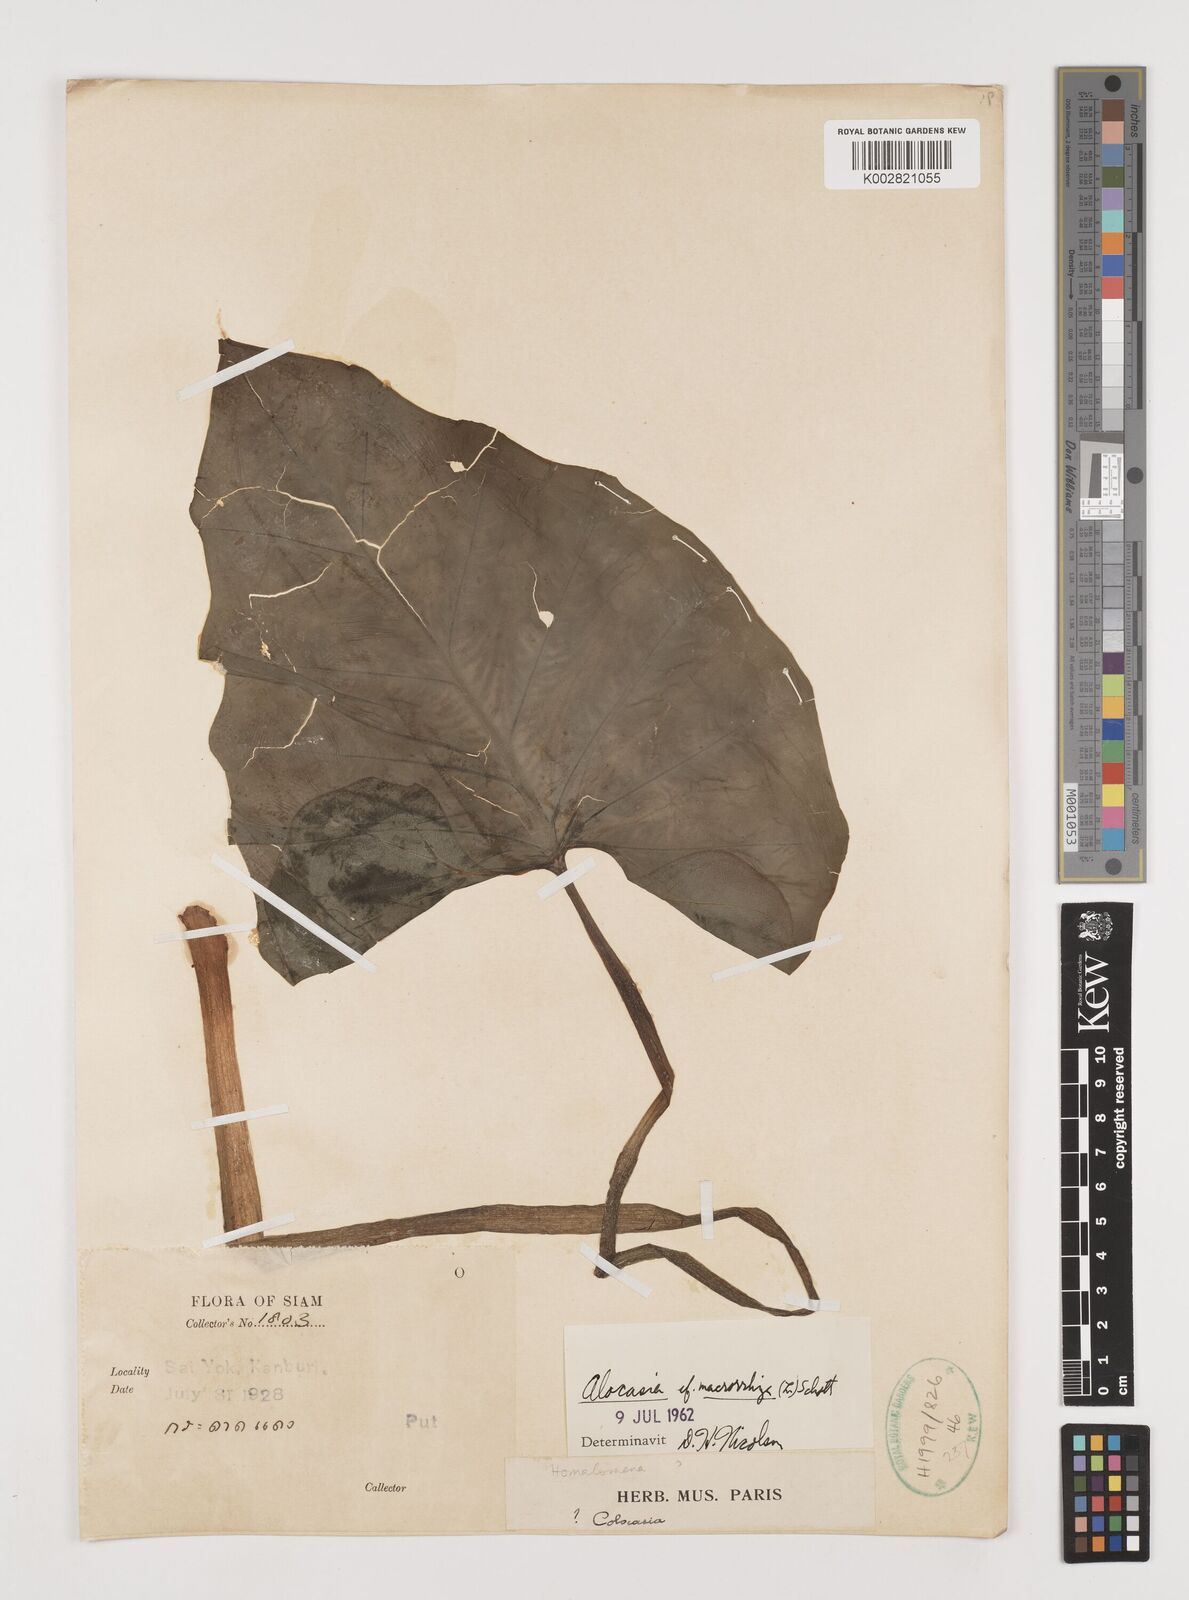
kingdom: Plantae
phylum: Tracheophyta
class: Liliopsida
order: Alismatales
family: Araceae
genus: Alocasia
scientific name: Alocasia macrorrhizos
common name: Giant taro
